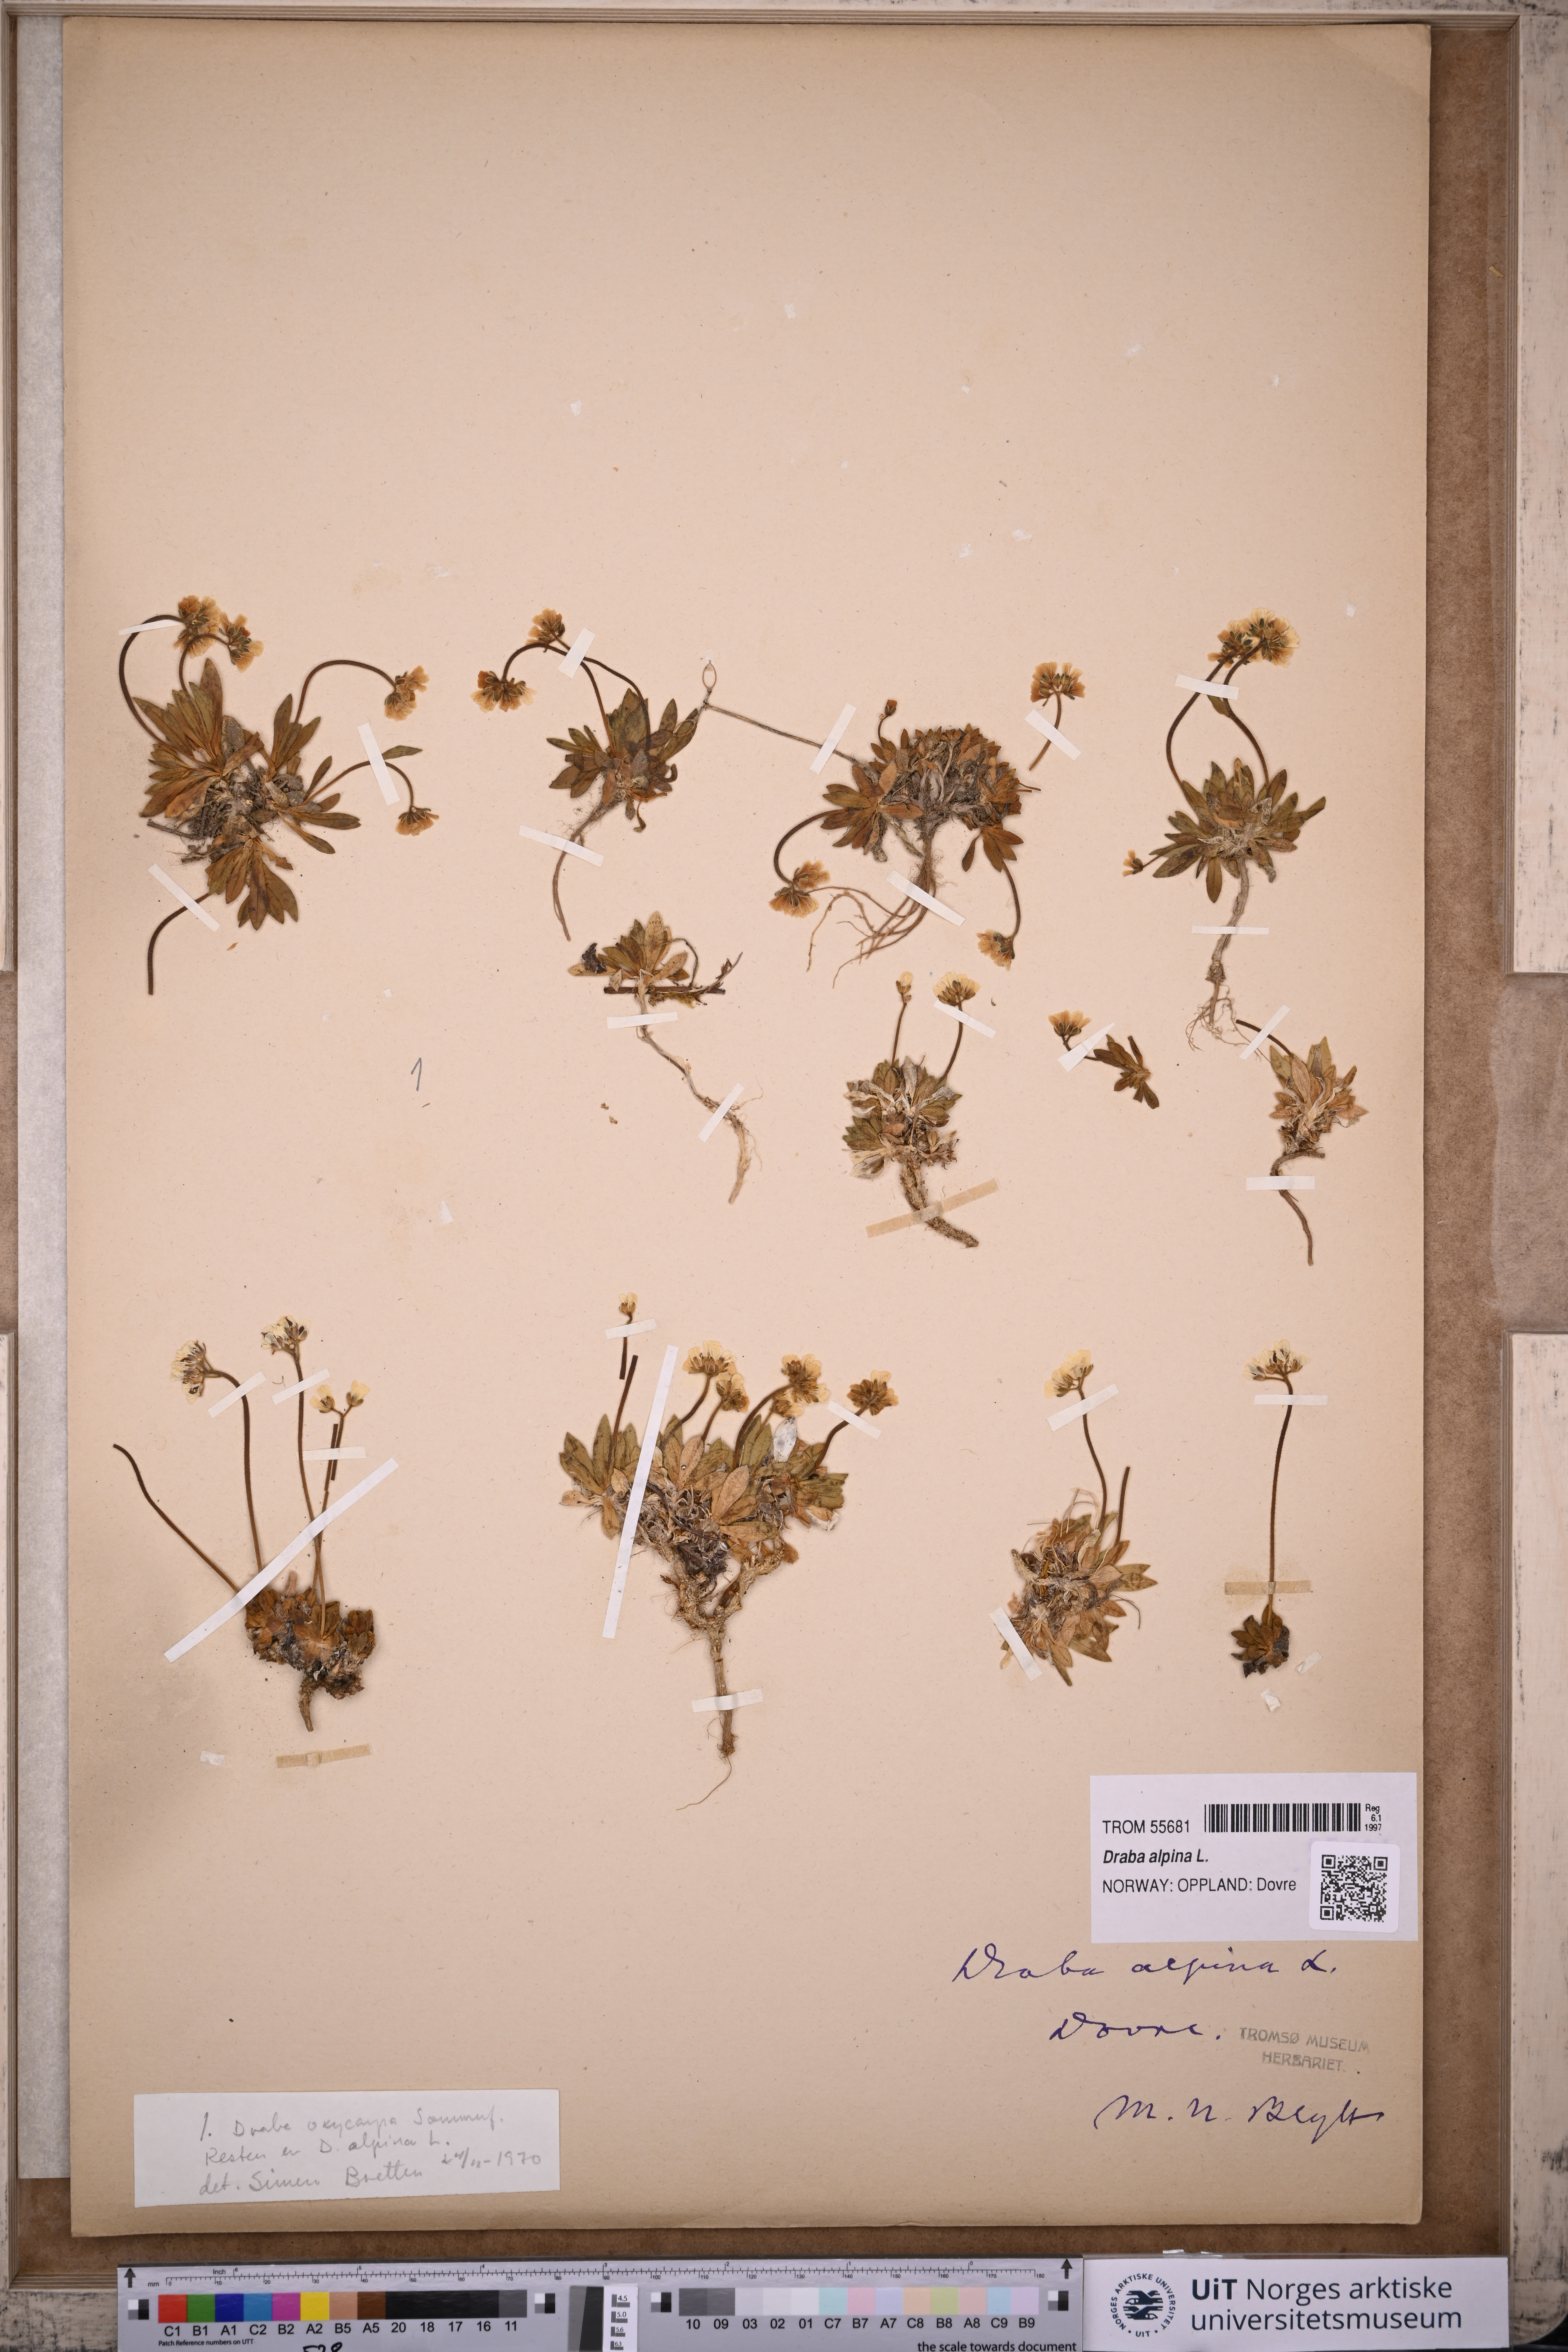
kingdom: Plantae
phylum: Tracheophyta
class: Magnoliopsida
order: Brassicales
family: Brassicaceae
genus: Draba
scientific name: Draba alpina
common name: Alpine draba
